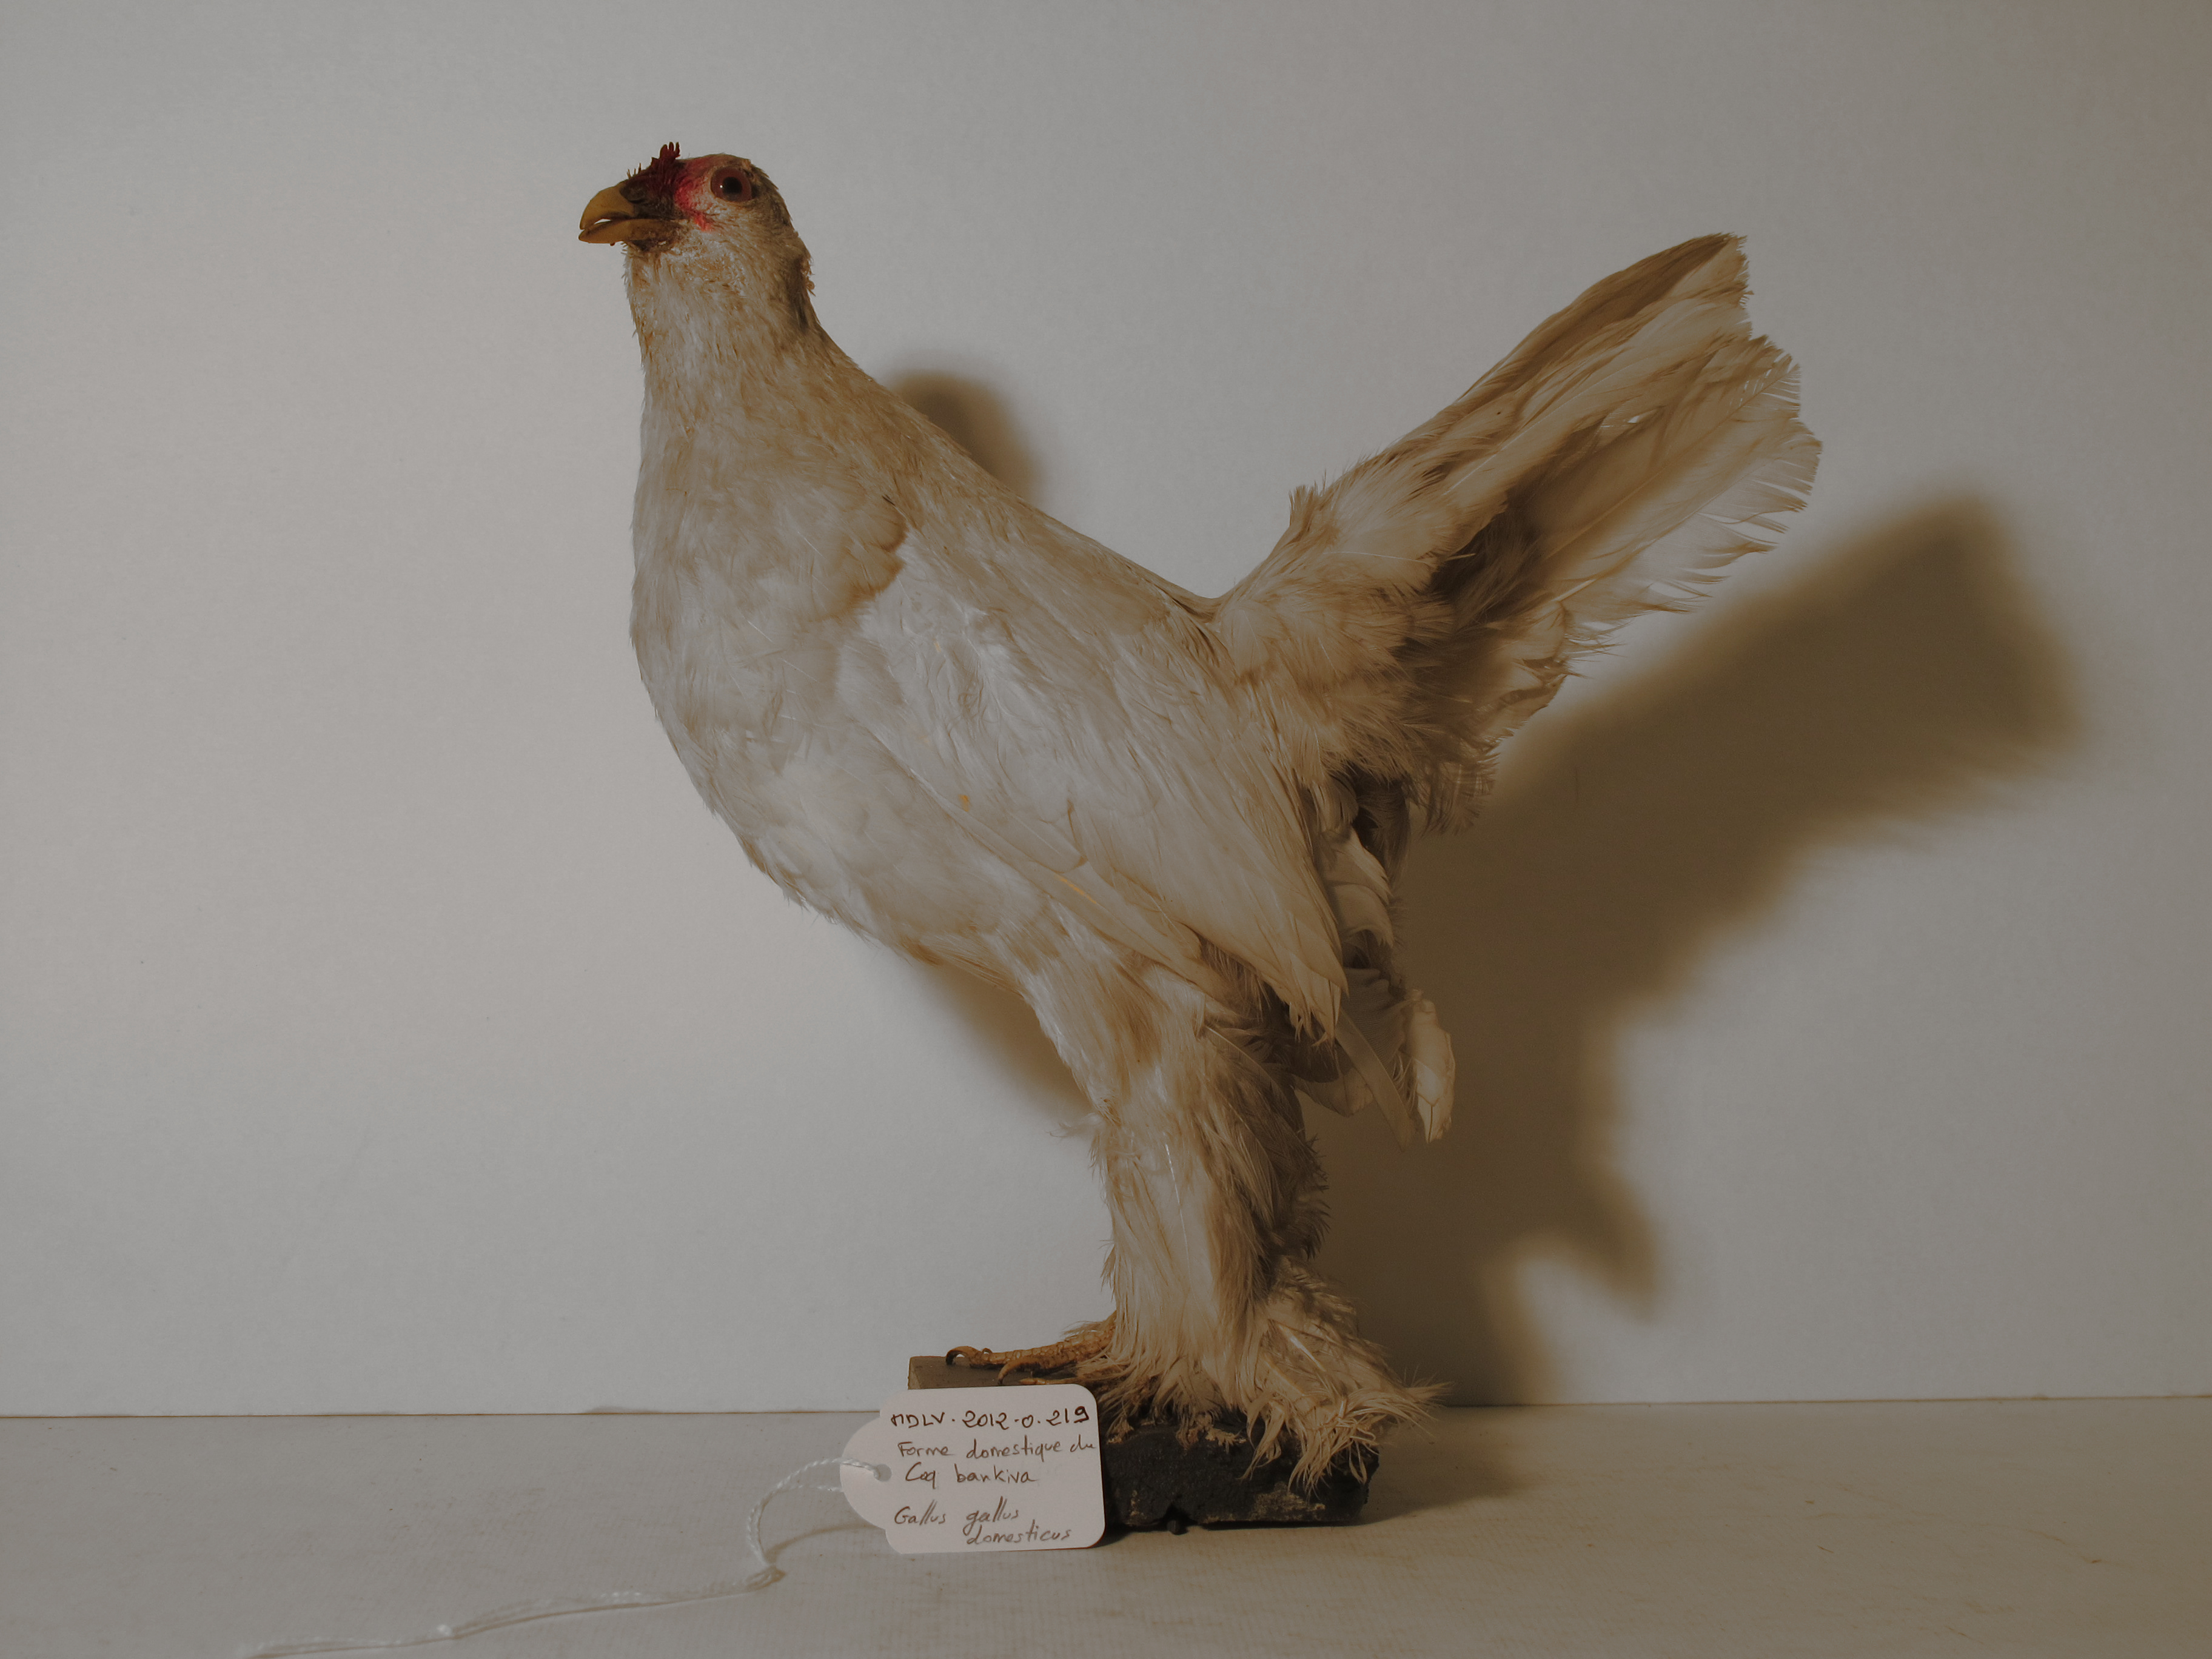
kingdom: Animalia
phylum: Chordata
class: Aves
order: Galliformes
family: Phasianidae
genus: Gallus
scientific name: Gallus gallus
